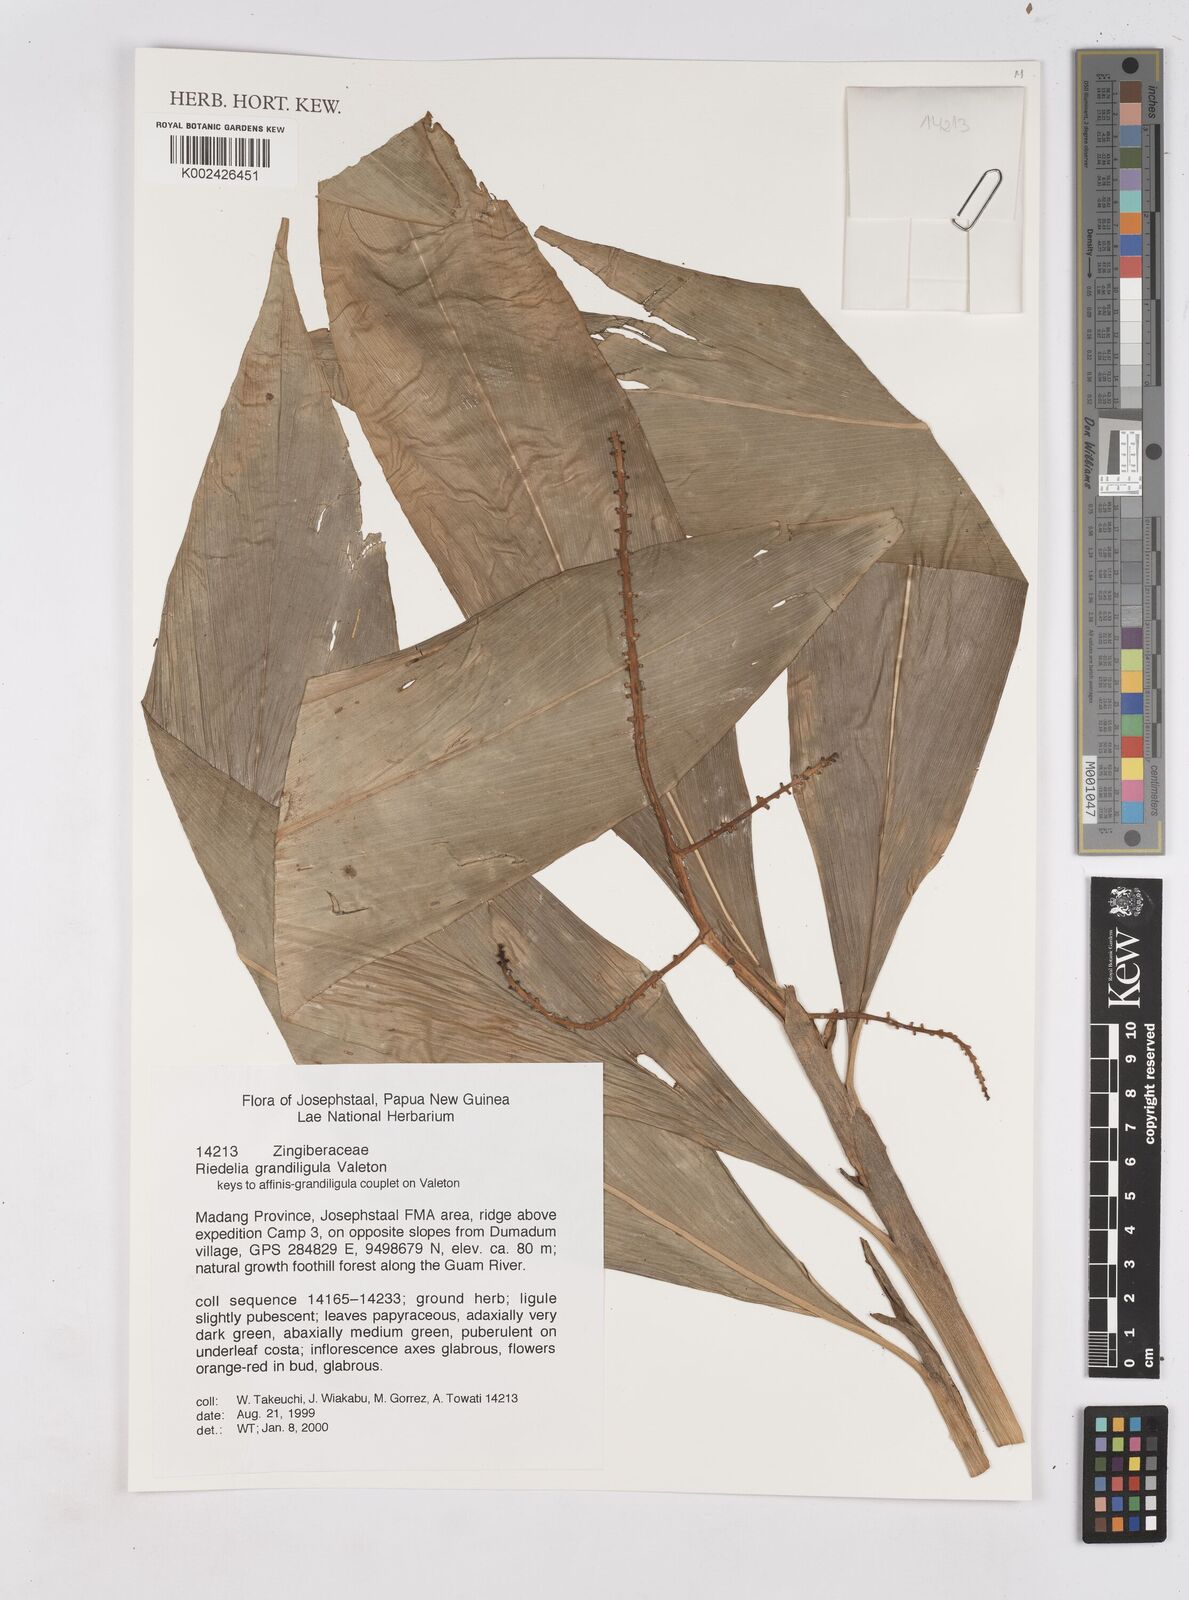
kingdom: Plantae
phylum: Tracheophyta
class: Liliopsida
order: Zingiberales
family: Zingiberaceae
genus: Riedelia
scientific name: Riedelia grandiligula
